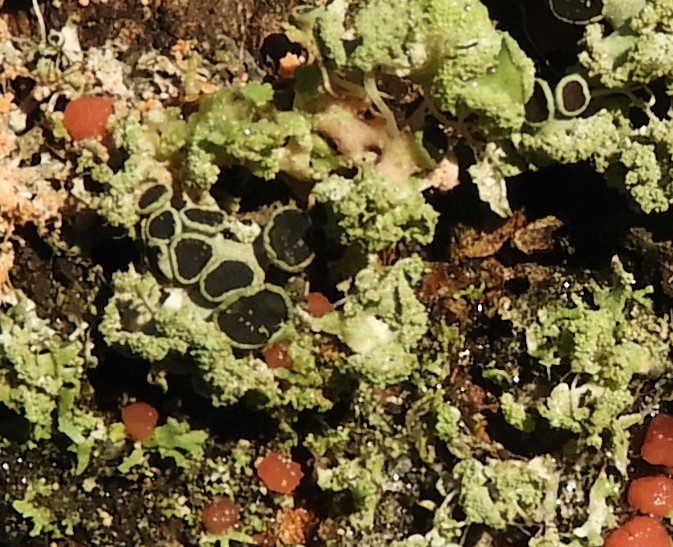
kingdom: Fungi
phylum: Ascomycota
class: Lecanoromycetes
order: Caliciales
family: Physciaceae
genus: Physcia
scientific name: Physcia tenella
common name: spæd rosetlav
